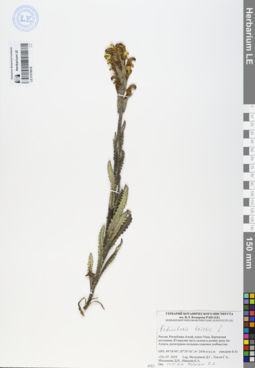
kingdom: Plantae
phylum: Tracheophyta
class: Magnoliopsida
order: Lamiales
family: Orobanchaceae
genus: Pedicularis
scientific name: Pedicularis tristis
